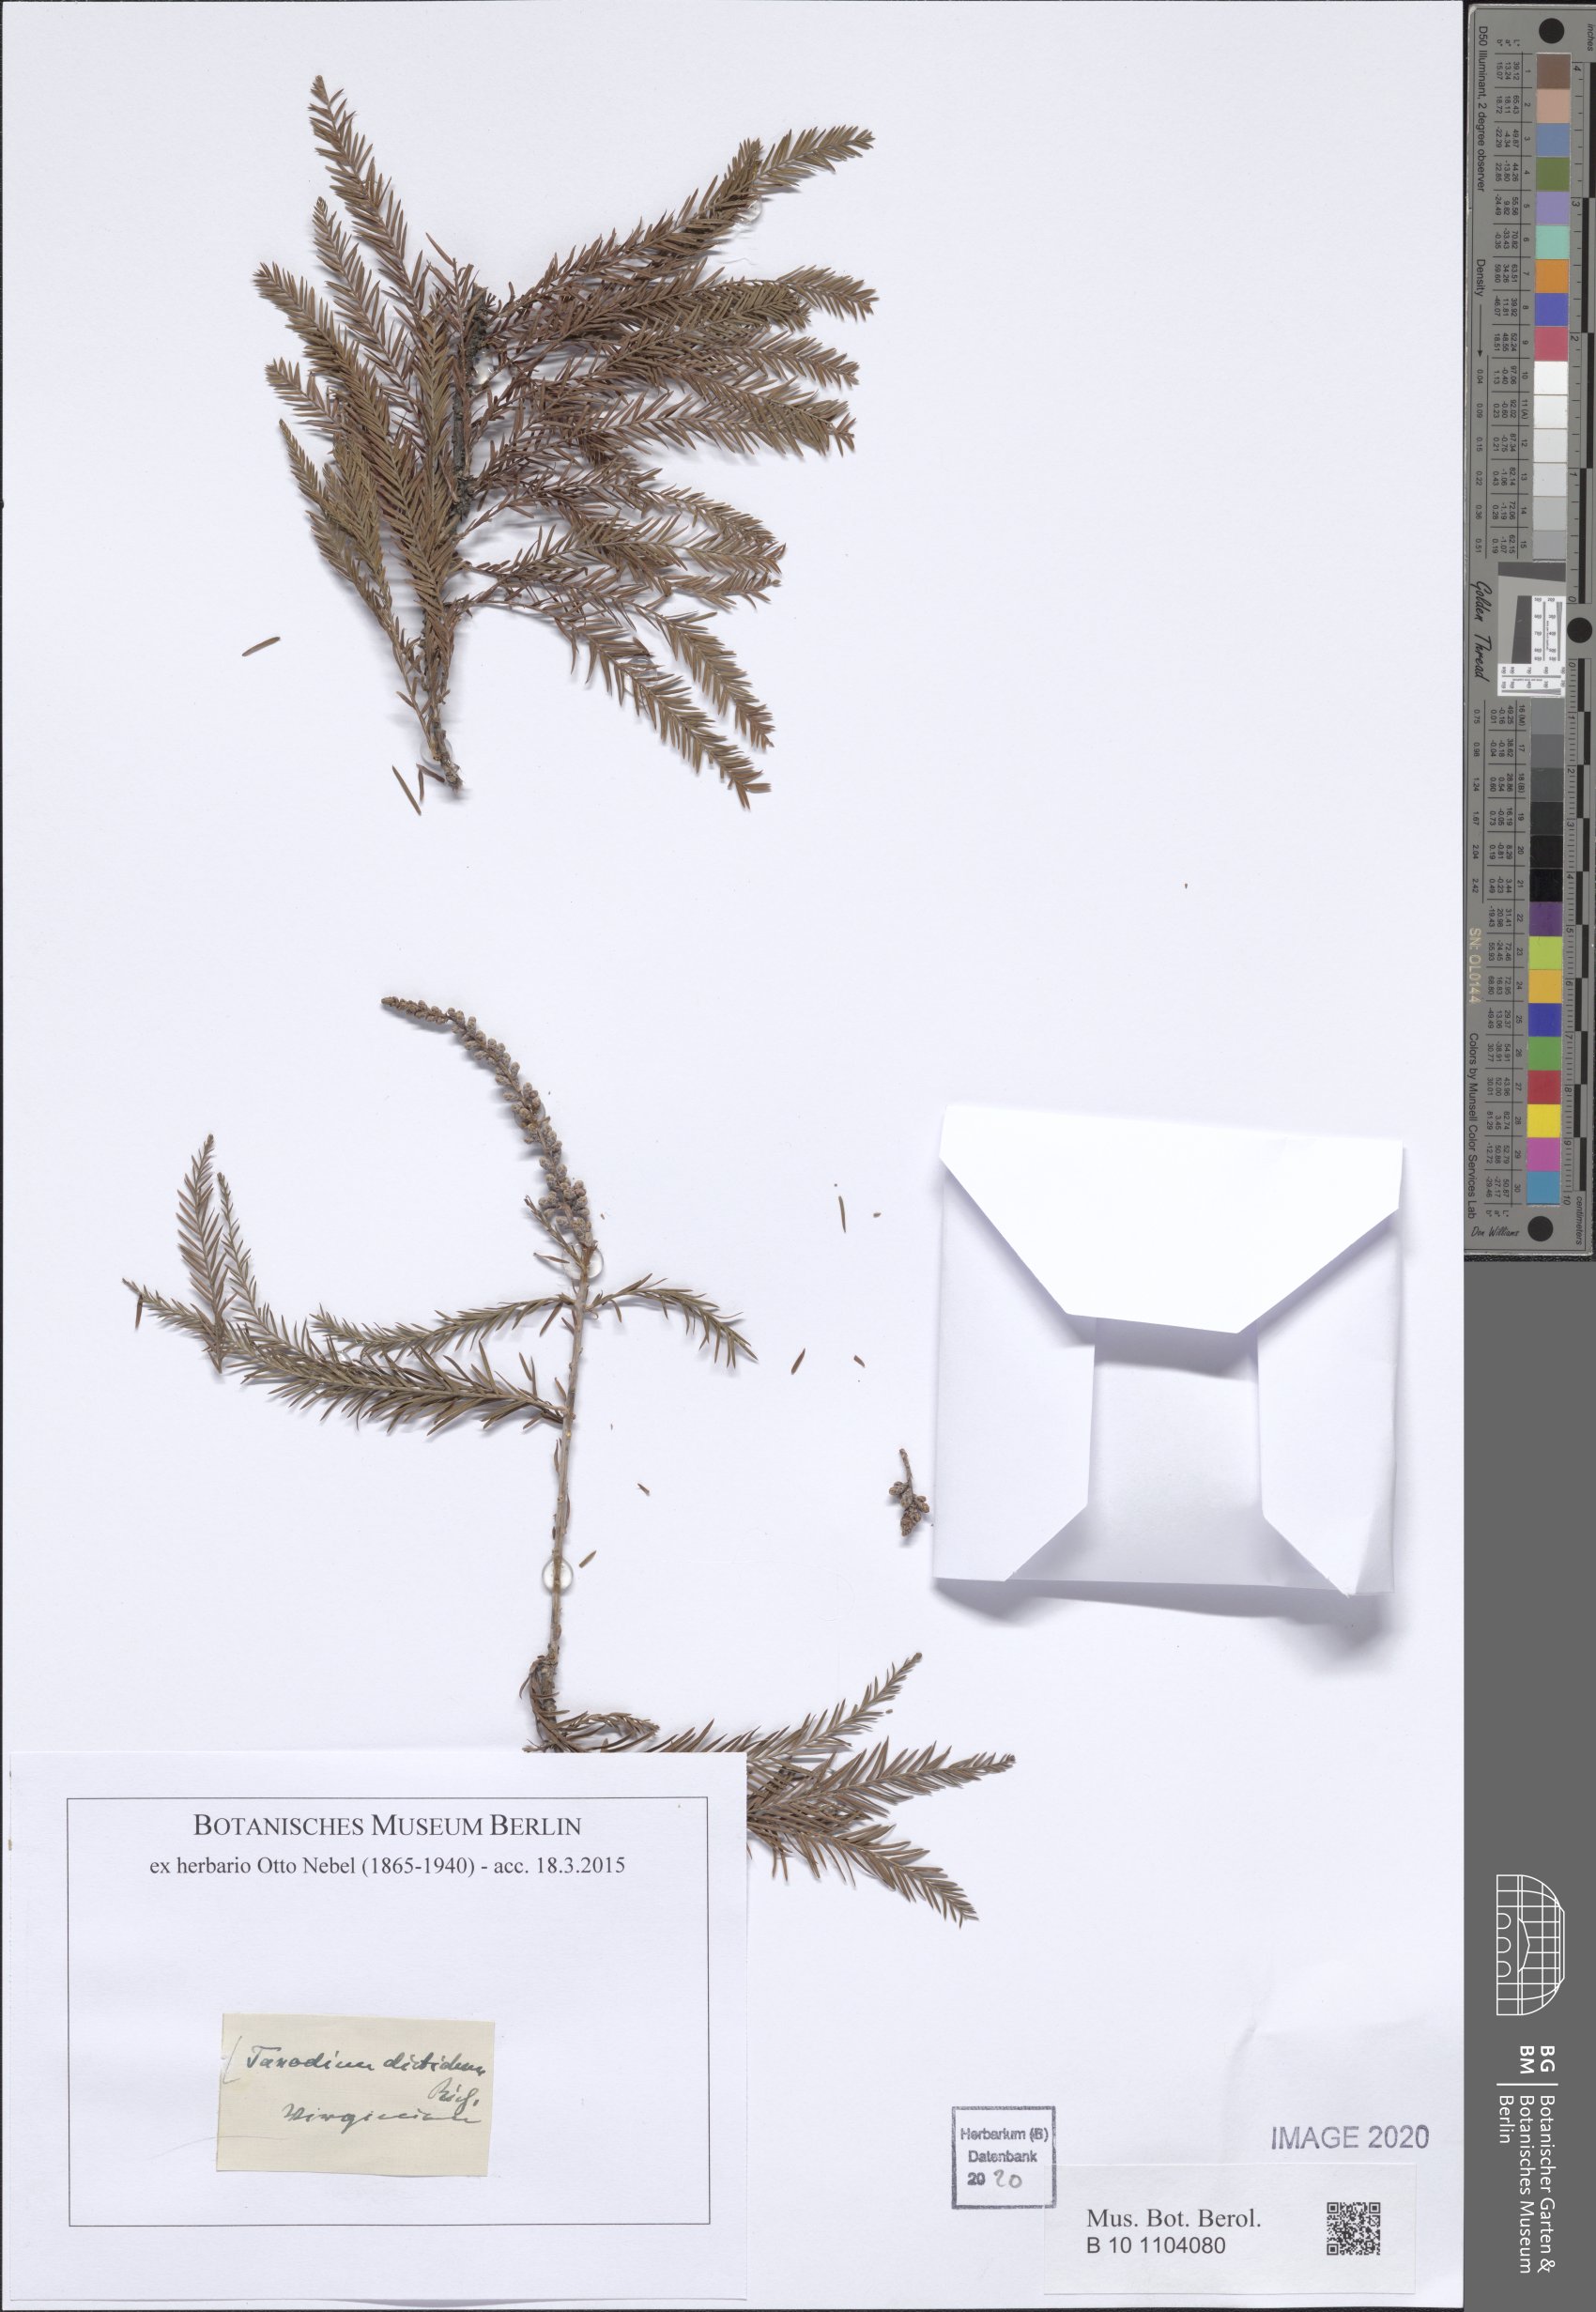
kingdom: Plantae
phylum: Tracheophyta
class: Pinopsida
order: Pinales
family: Cupressaceae
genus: Taxodium
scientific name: Taxodium distichum
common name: Bald cypress
